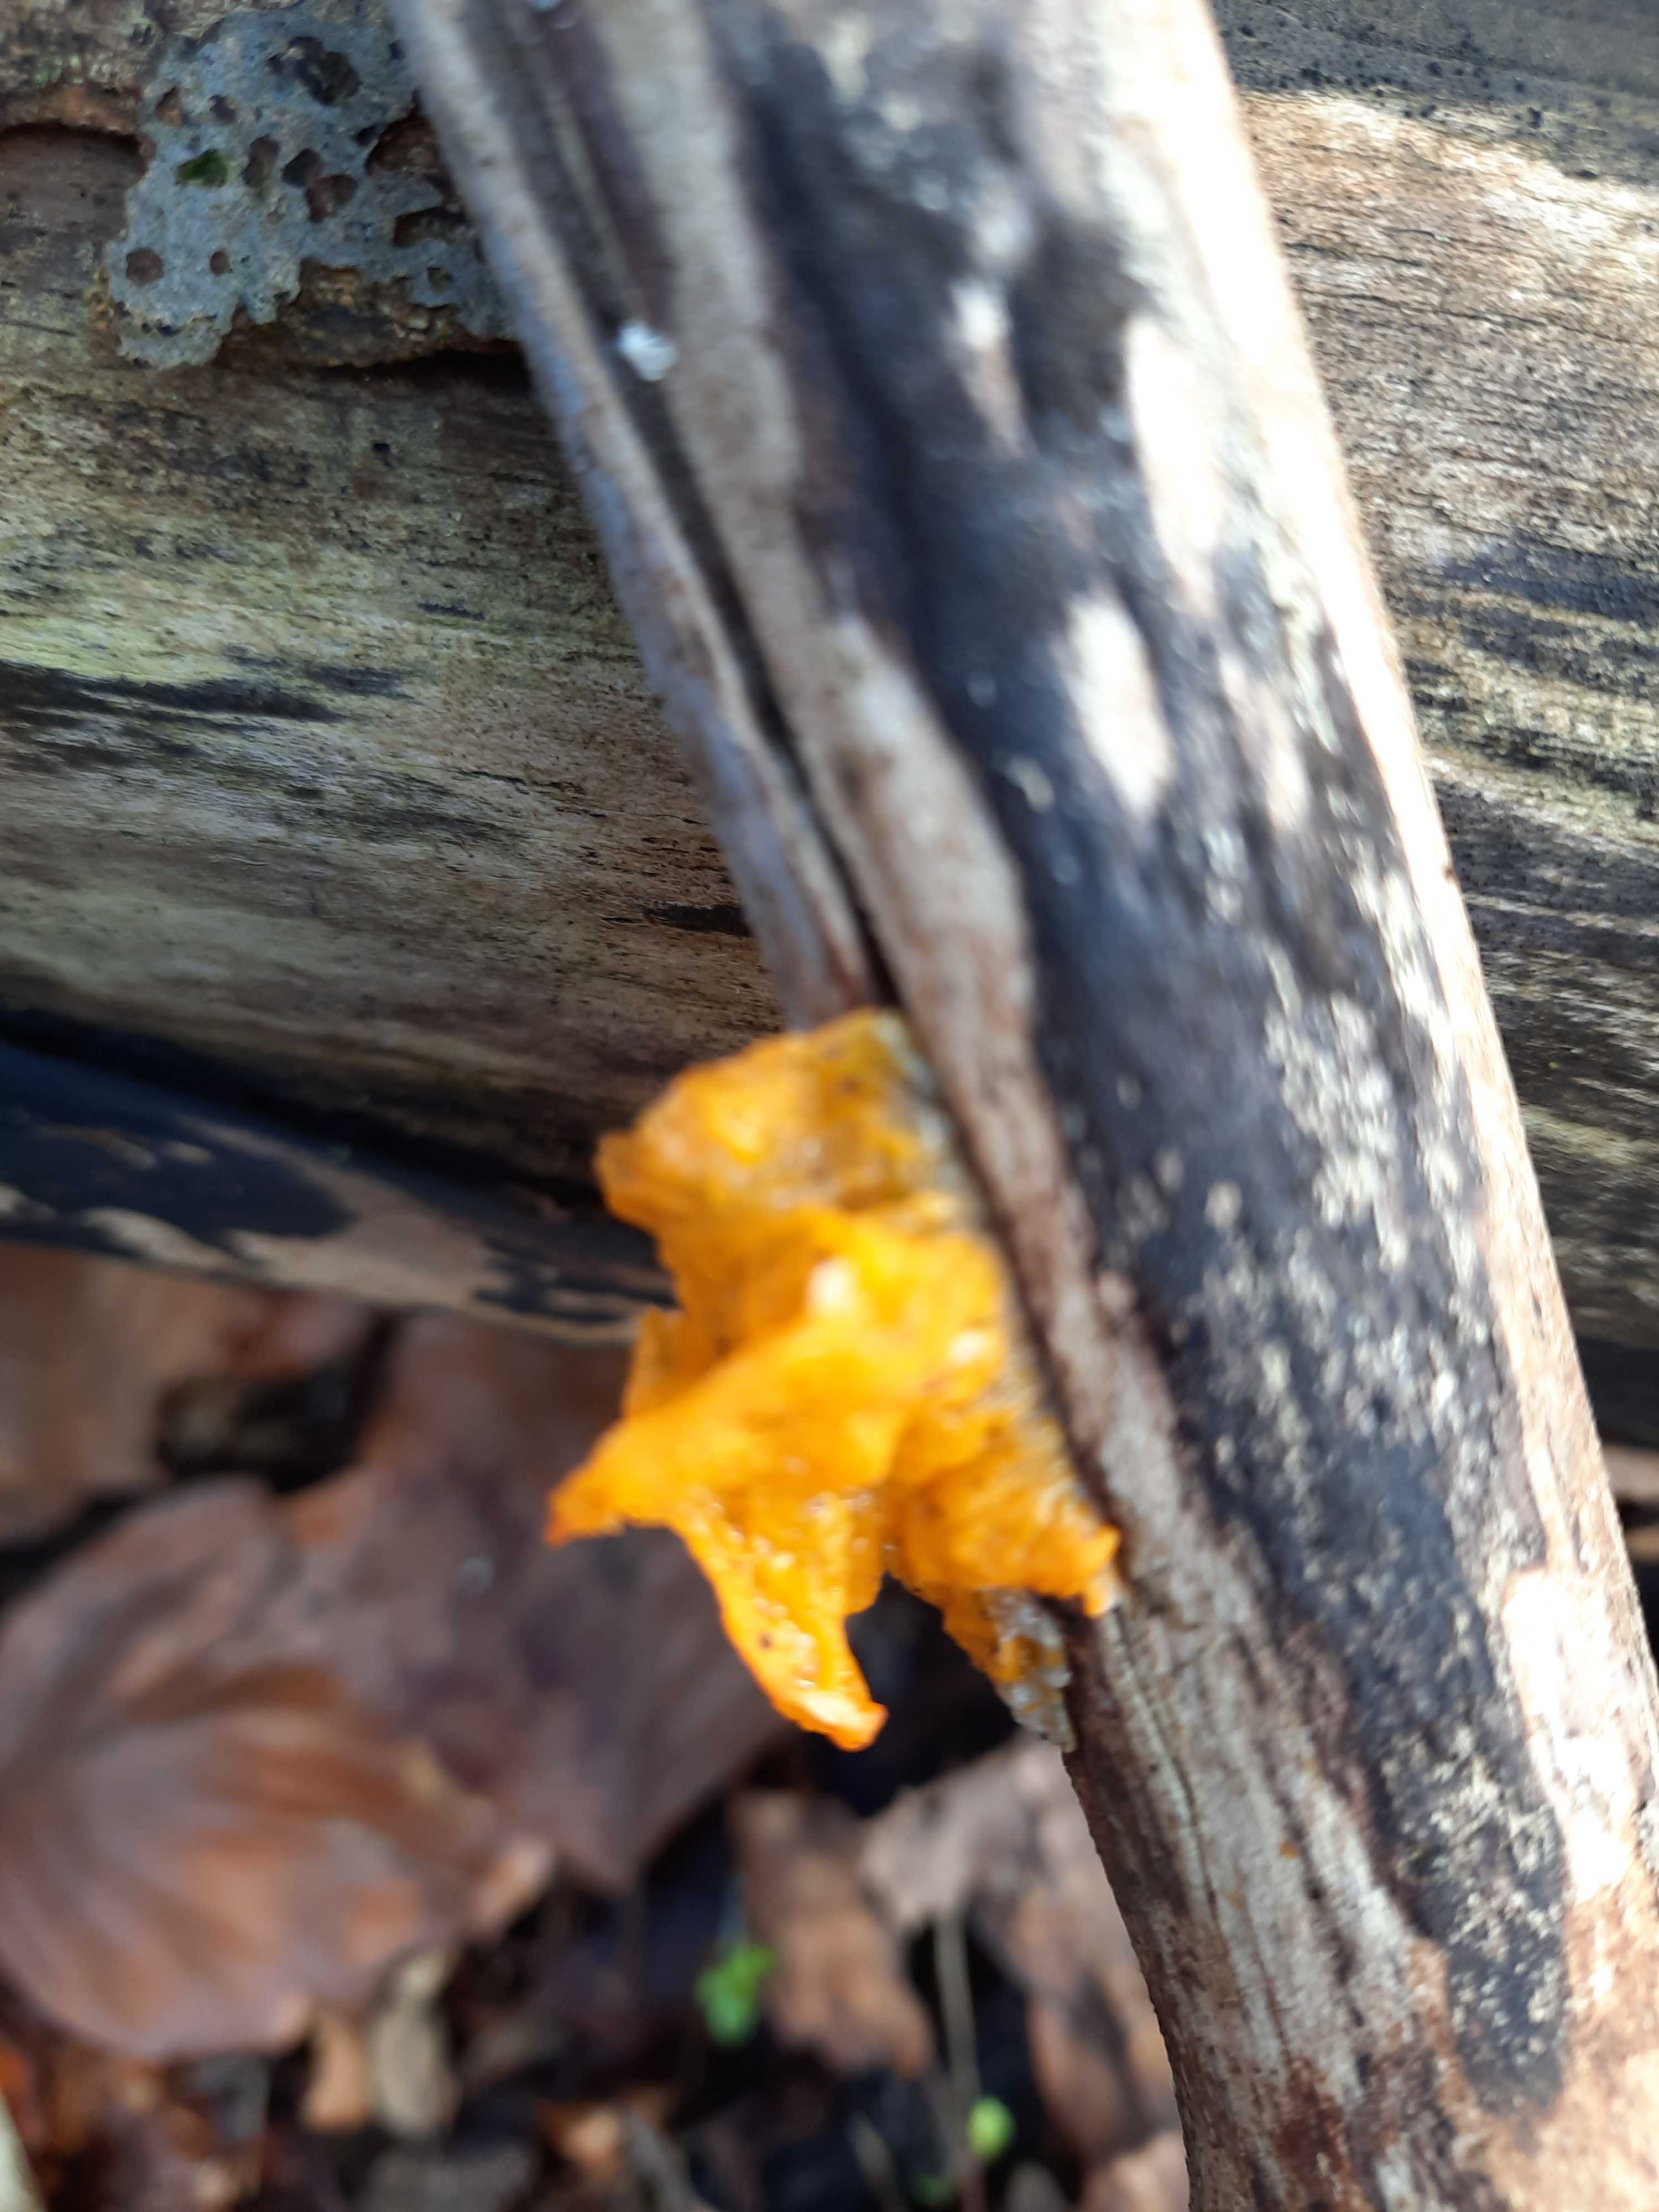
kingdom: Fungi
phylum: Basidiomycota
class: Tremellomycetes
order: Tremellales
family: Tremellaceae
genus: Tremella
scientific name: Tremella mesenterica
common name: gul bævresvamp
